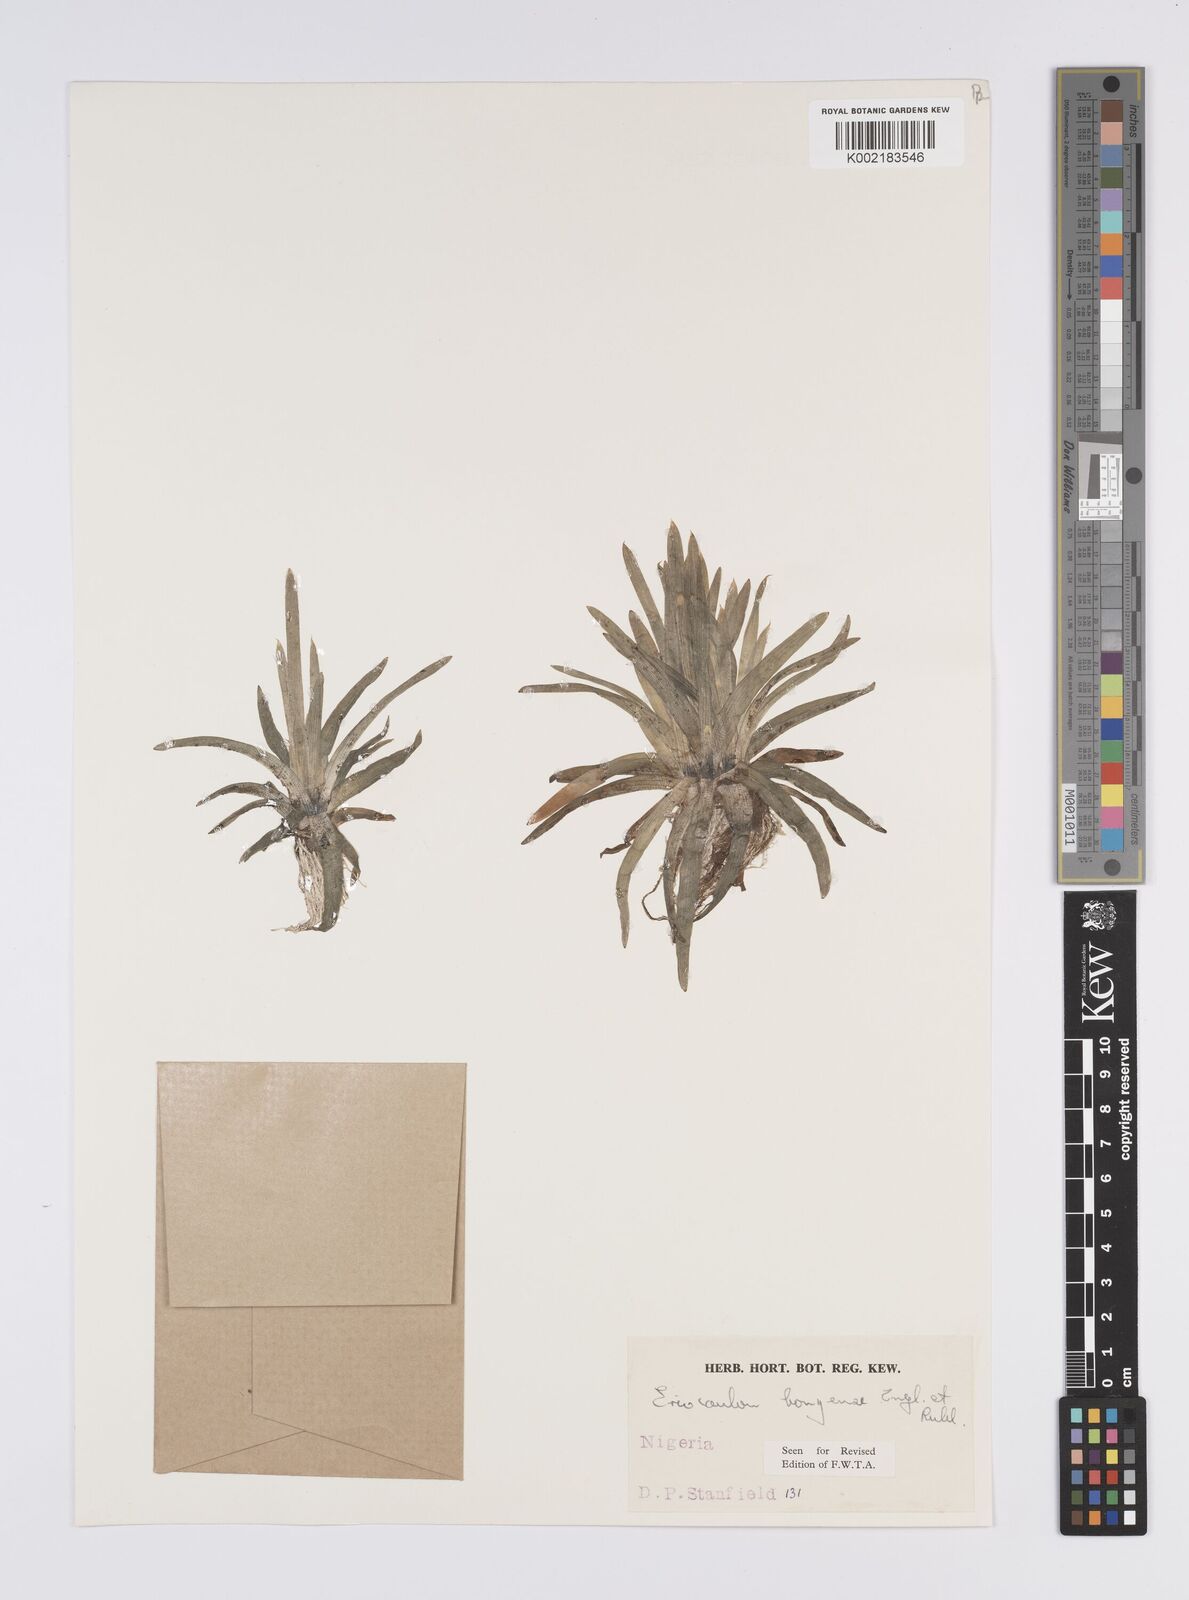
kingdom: Plantae
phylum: Tracheophyta
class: Liliopsida
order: Poales
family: Eriocaulaceae
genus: Eriocaulon
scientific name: Eriocaulon bongense
